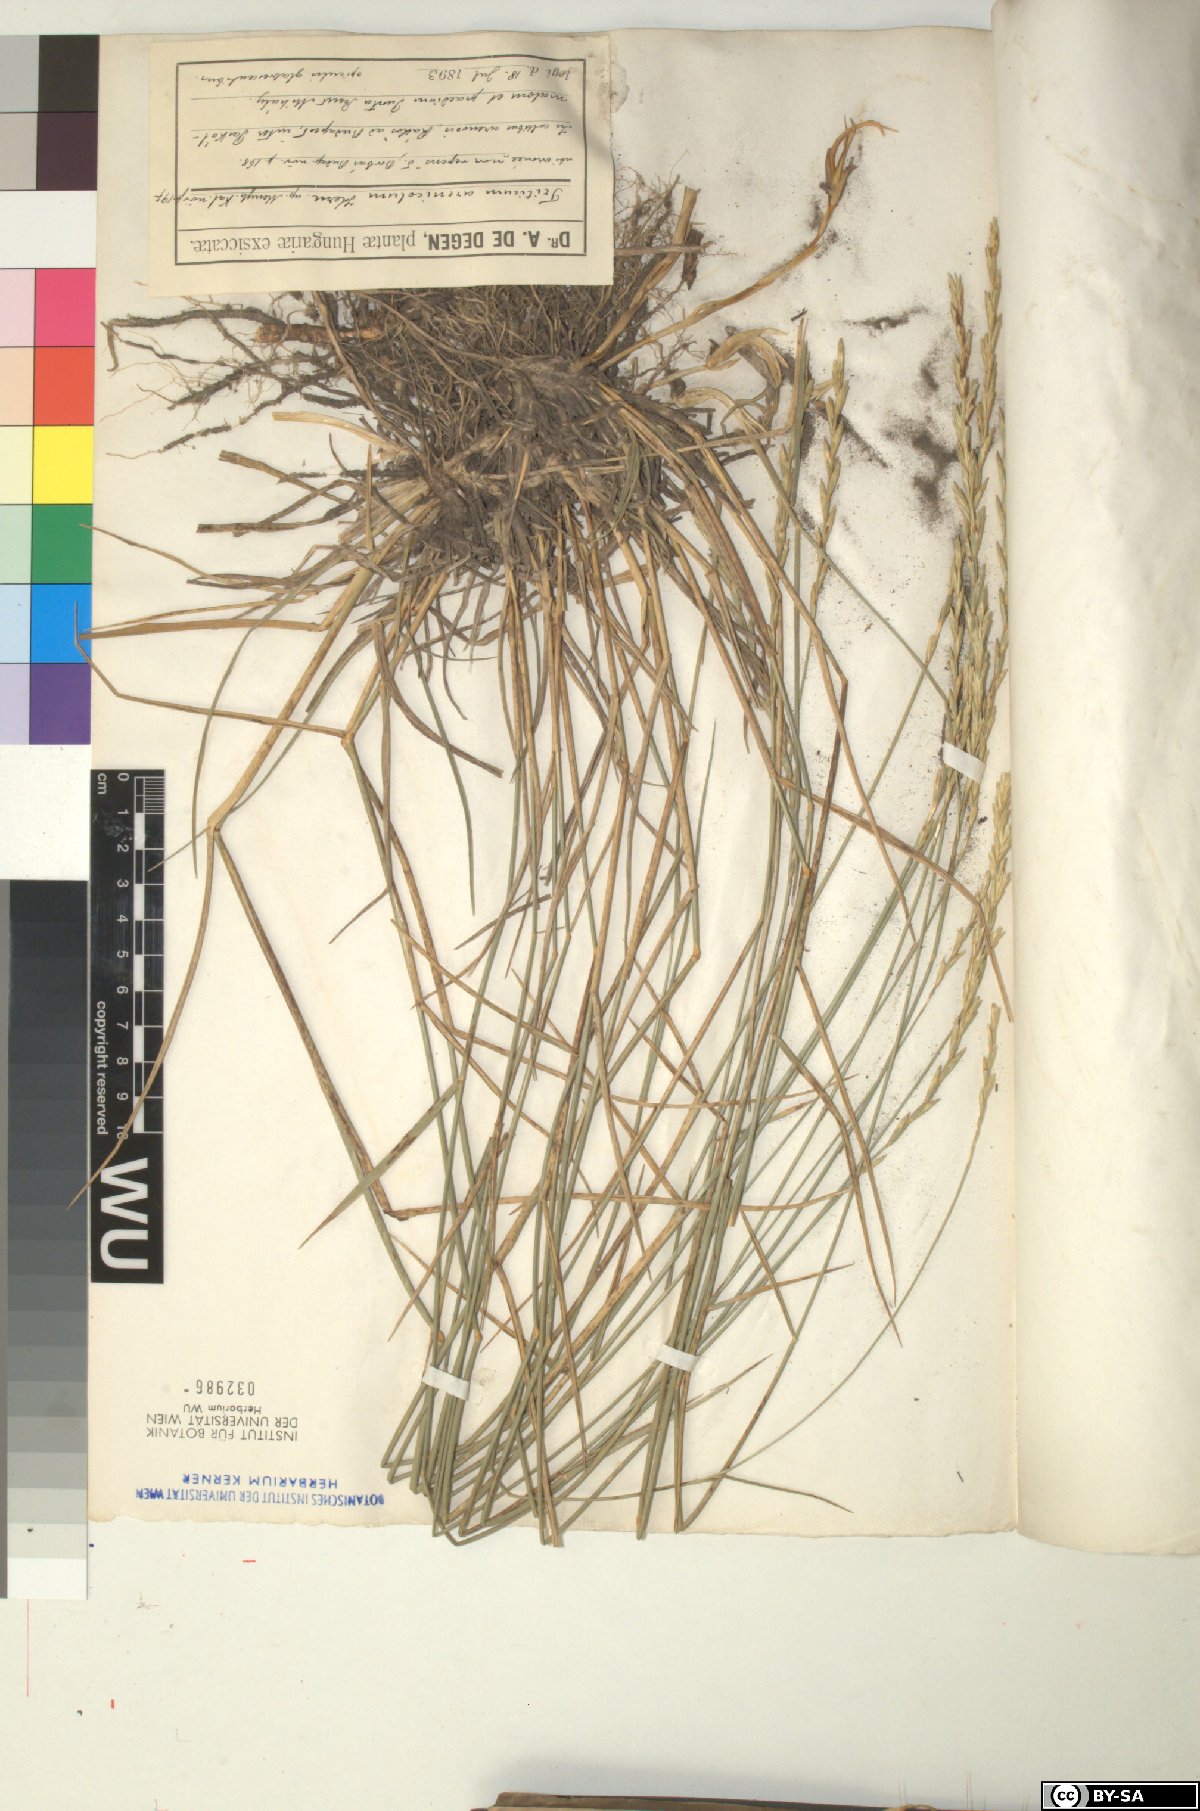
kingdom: Plantae
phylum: Tracheophyta
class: Liliopsida
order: Poales
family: Poaceae
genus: Thinopyrum
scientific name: Thinopyrum intermedium
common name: Intermediate wheatgrass
